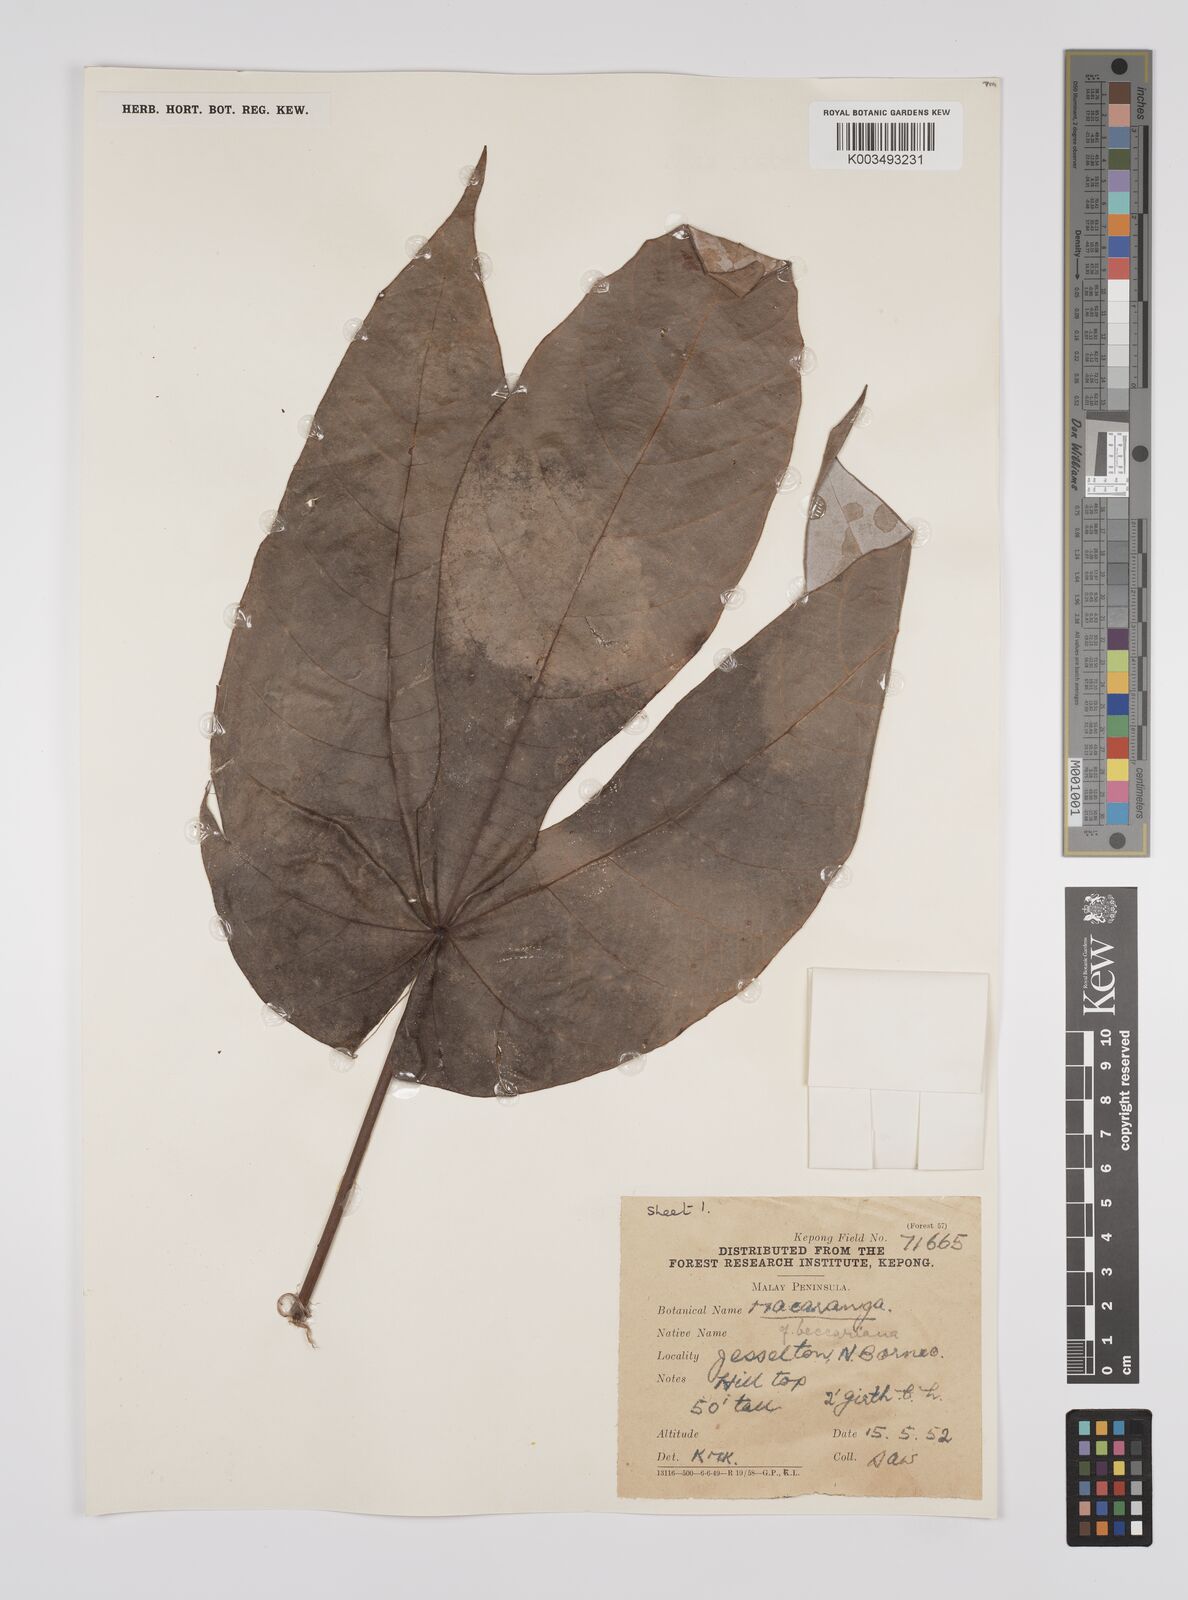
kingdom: Plantae
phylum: Tracheophyta
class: Magnoliopsida
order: Malpighiales
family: Euphorbiaceae
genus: Macaranga
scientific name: Macaranga beccariana
